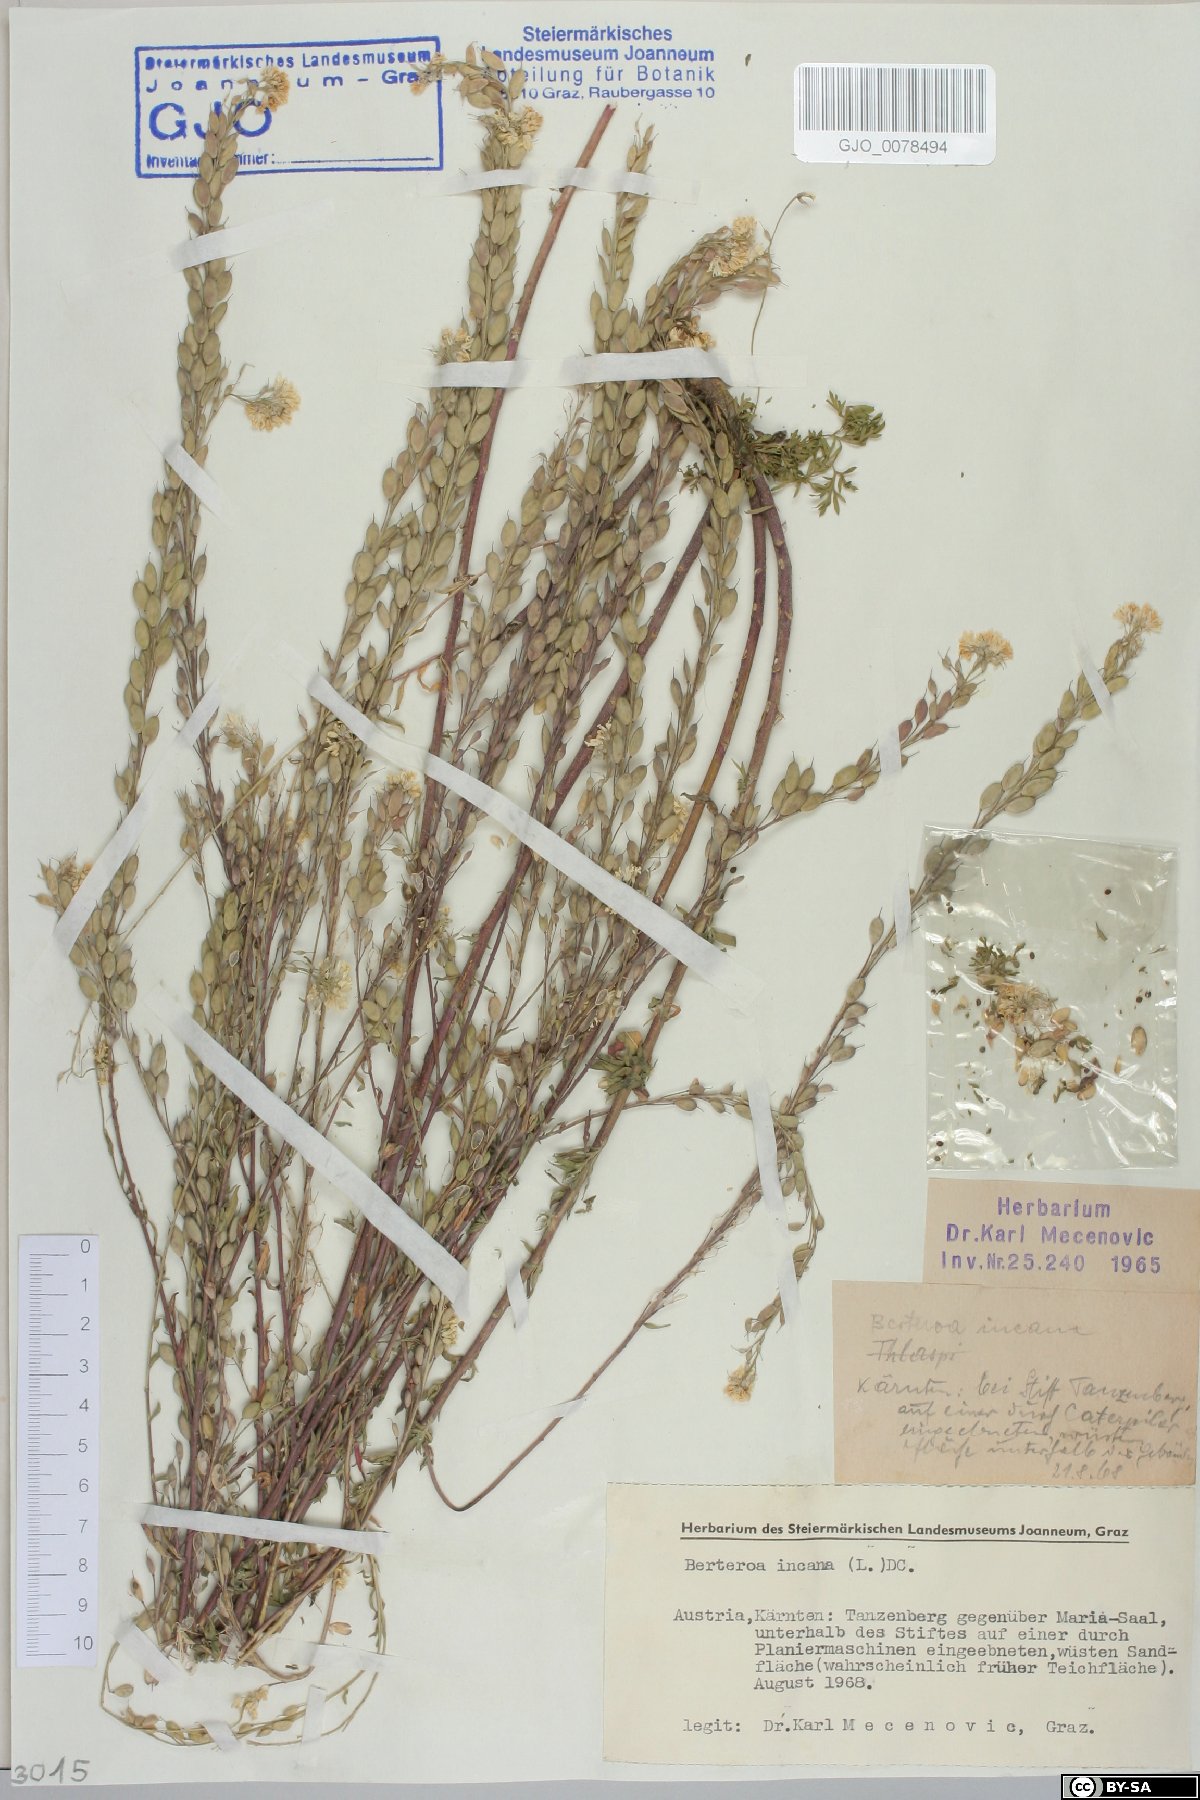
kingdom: Plantae
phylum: Tracheophyta
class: Magnoliopsida
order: Brassicales
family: Brassicaceae
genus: Berteroa
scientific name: Berteroa incana
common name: Hoary alison
